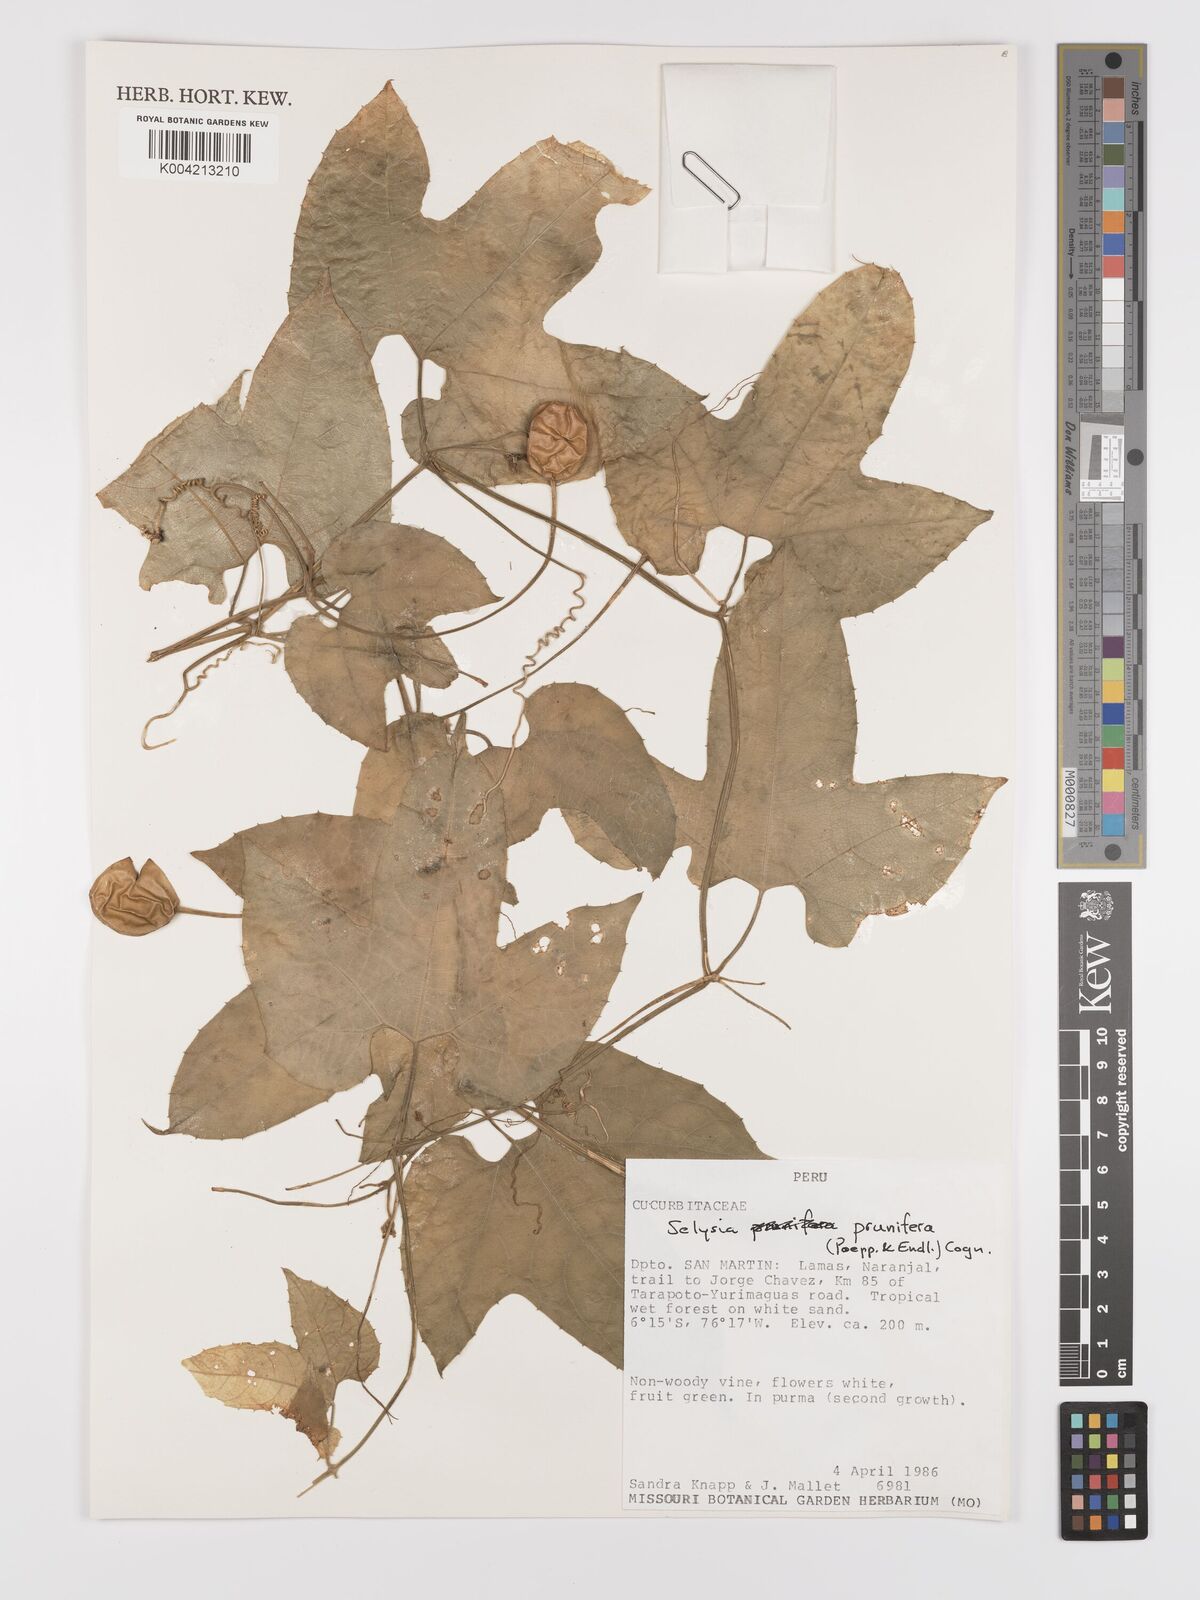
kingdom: Plantae
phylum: Tracheophyta
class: Magnoliopsida
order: Cucurbitales
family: Cucurbitaceae
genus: Cayaponia
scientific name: Cayaponia prunifera
